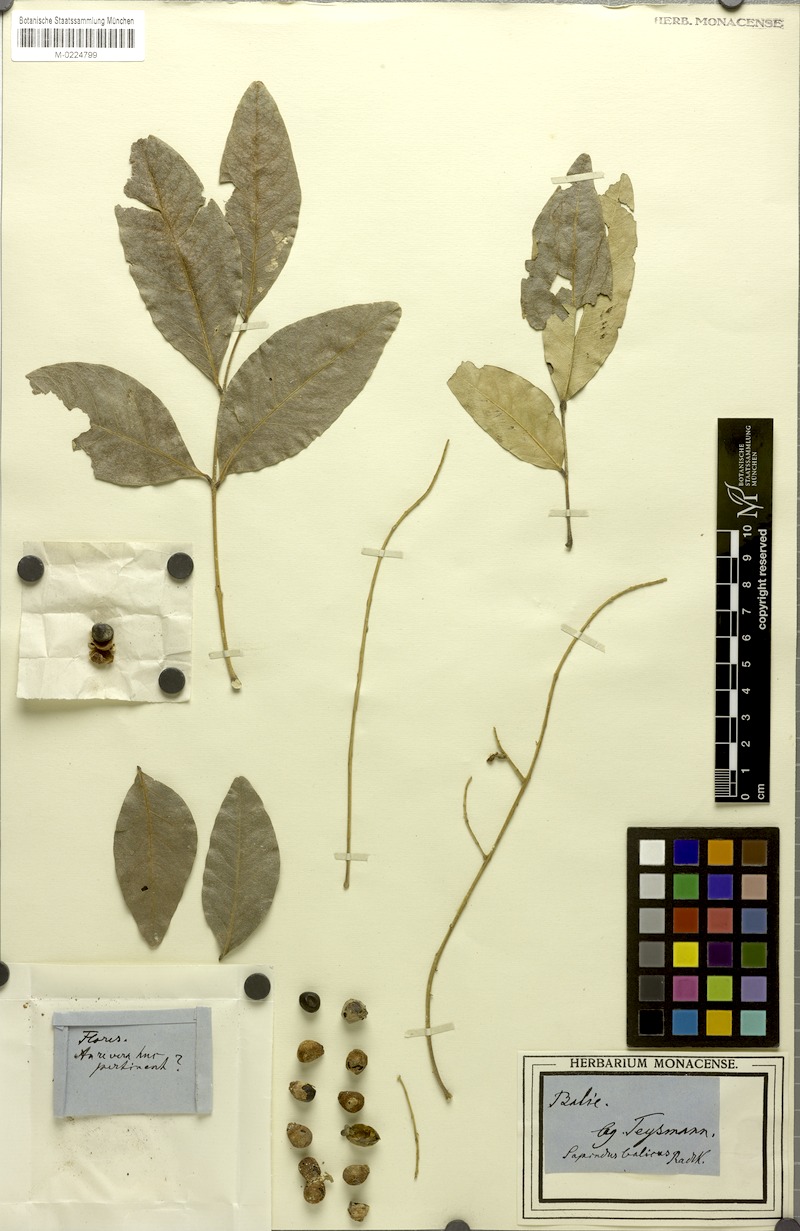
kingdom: Plantae
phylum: Tracheophyta
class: Magnoliopsida
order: Sapindales
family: Sapindaceae
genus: Sapindus
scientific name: Sapindus
